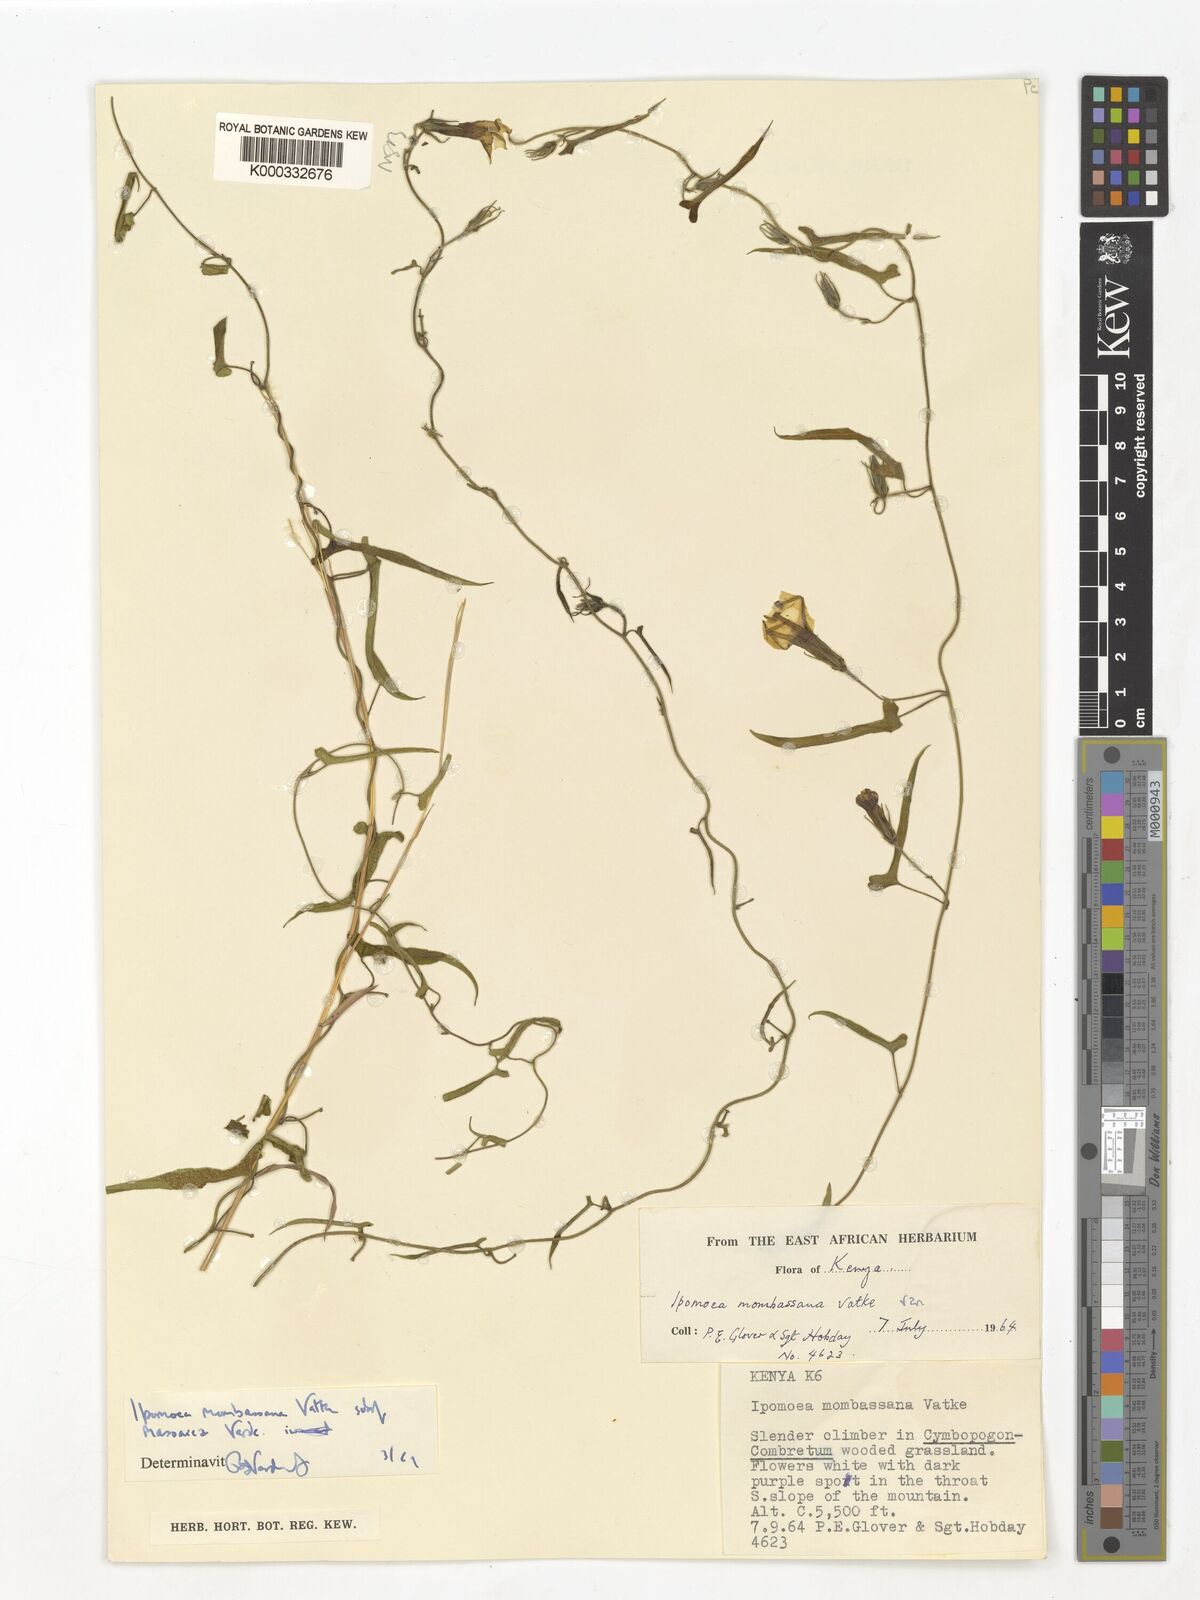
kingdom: Plantae
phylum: Tracheophyta
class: Magnoliopsida
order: Solanales
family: Convolvulaceae
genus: Ipomoea
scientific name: Ipomoea mombassana
